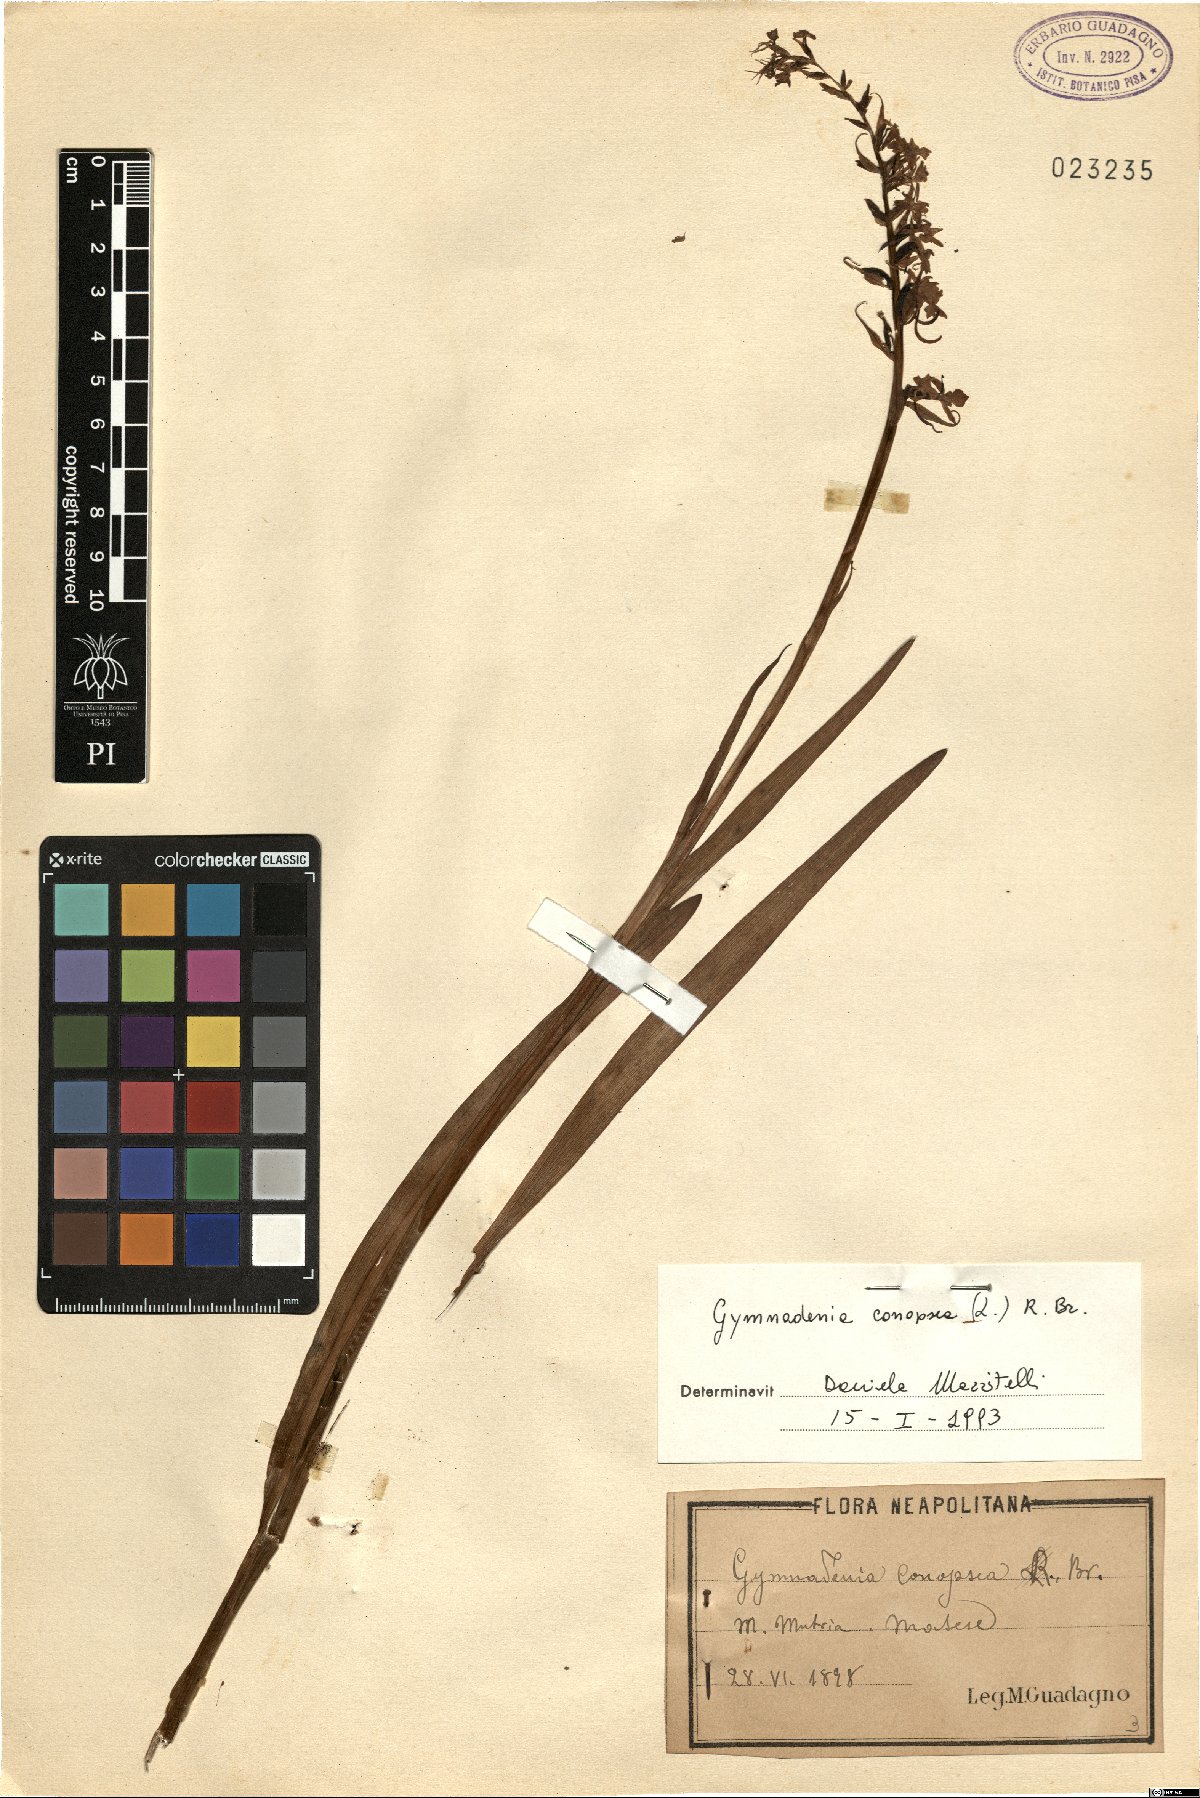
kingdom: Plantae
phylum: Tracheophyta
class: Liliopsida
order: Asparagales
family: Orchidaceae
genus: Gymnadenia
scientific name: Gymnadenia conopsea
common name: Fragrant orchid
